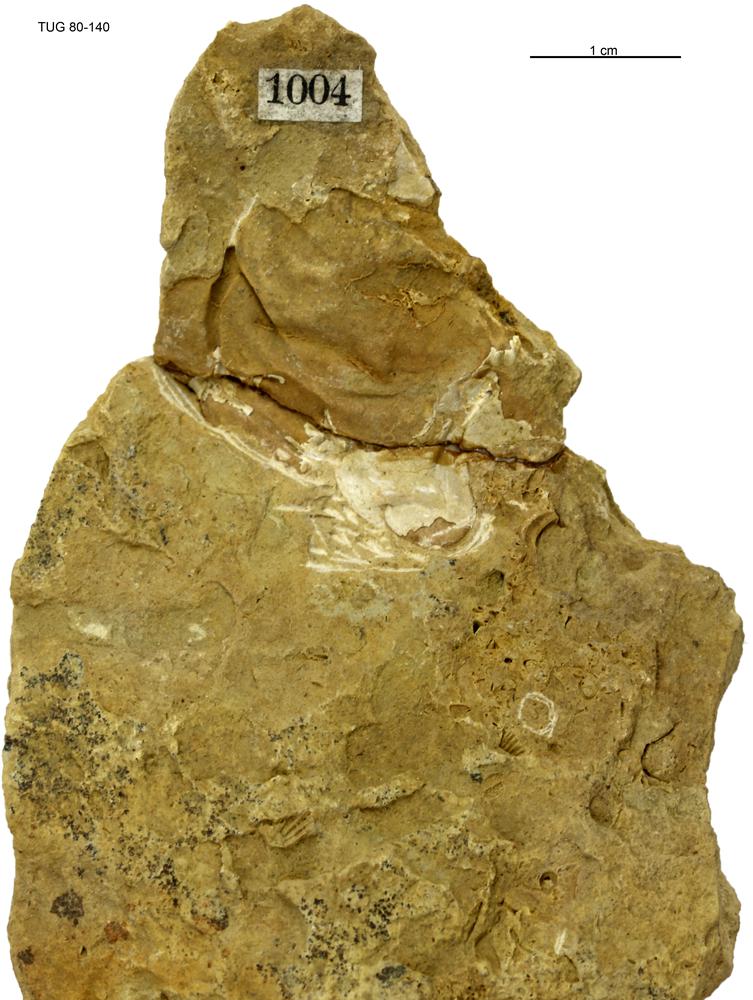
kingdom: Animalia
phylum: Arthropoda
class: Trilobita
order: Phacopida
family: Pterygometopidae
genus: Chasmops
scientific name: Chasmops
